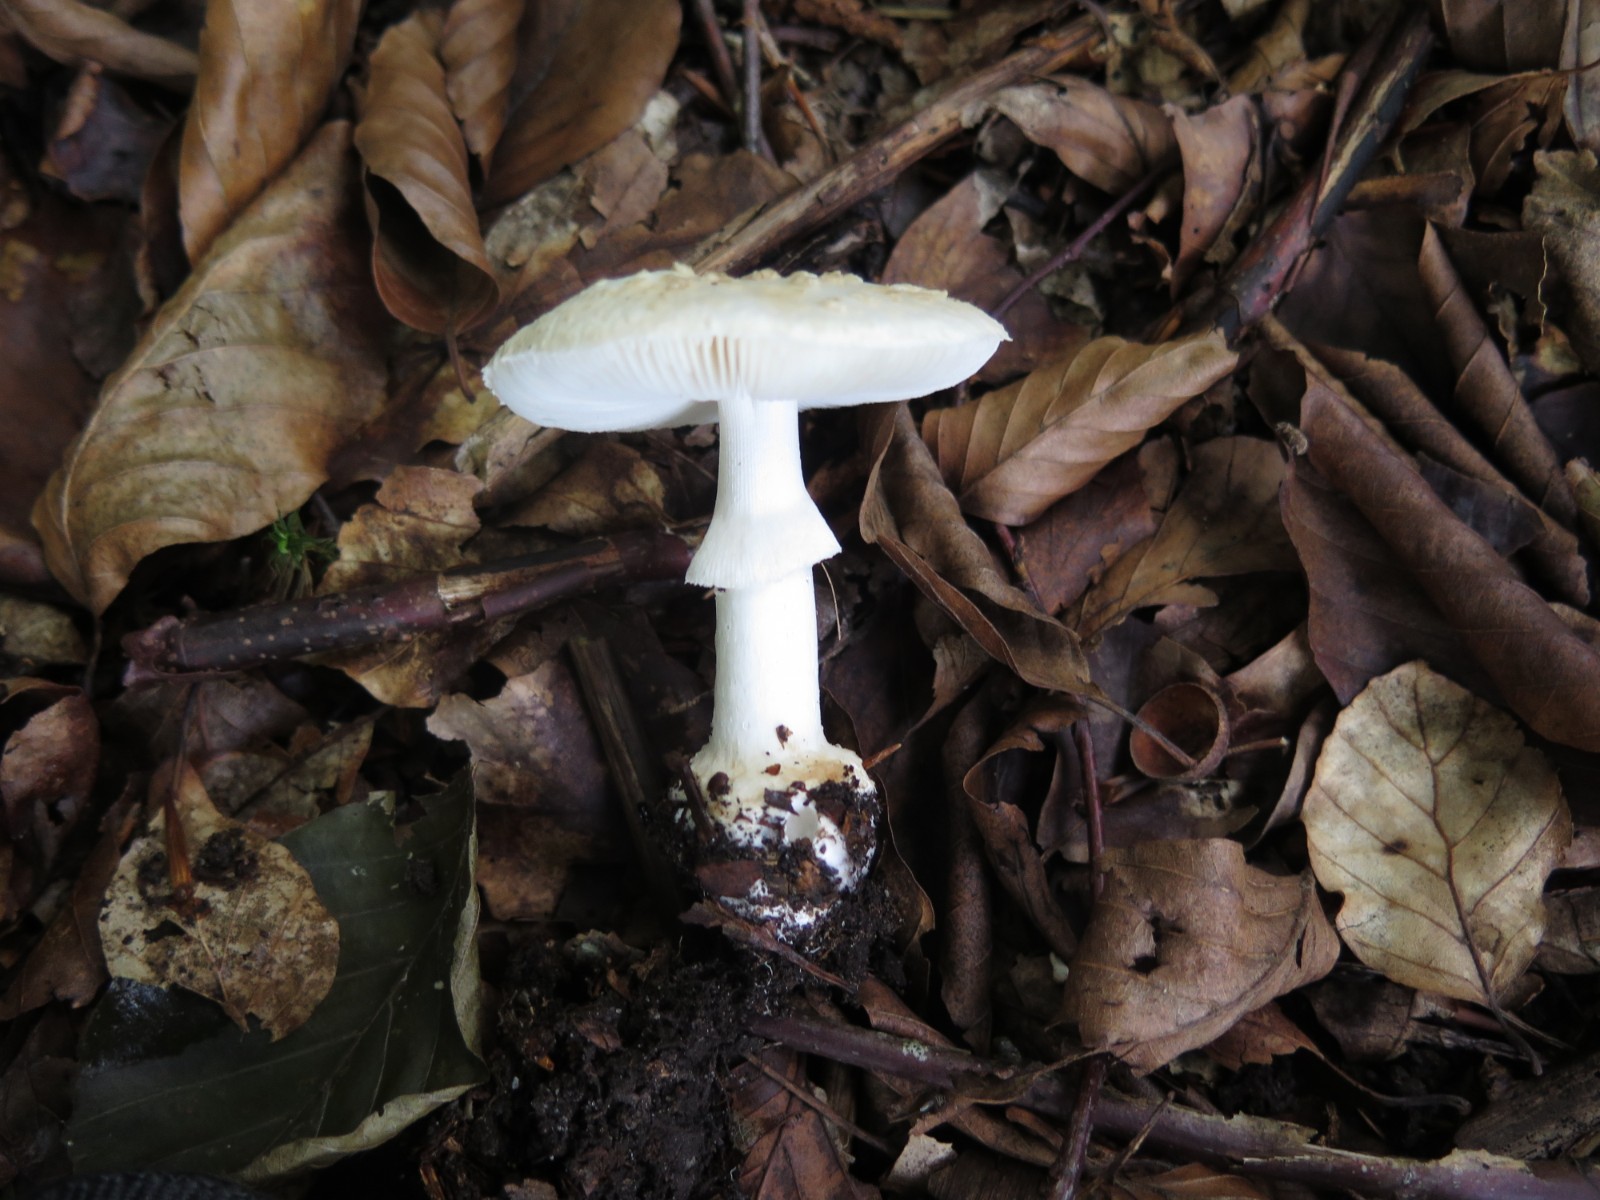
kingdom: Fungi
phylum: Basidiomycota
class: Agaricomycetes
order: Agaricales
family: Amanitaceae
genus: Amanita
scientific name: Amanita citrina
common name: kugleknoldet fluesvamp
